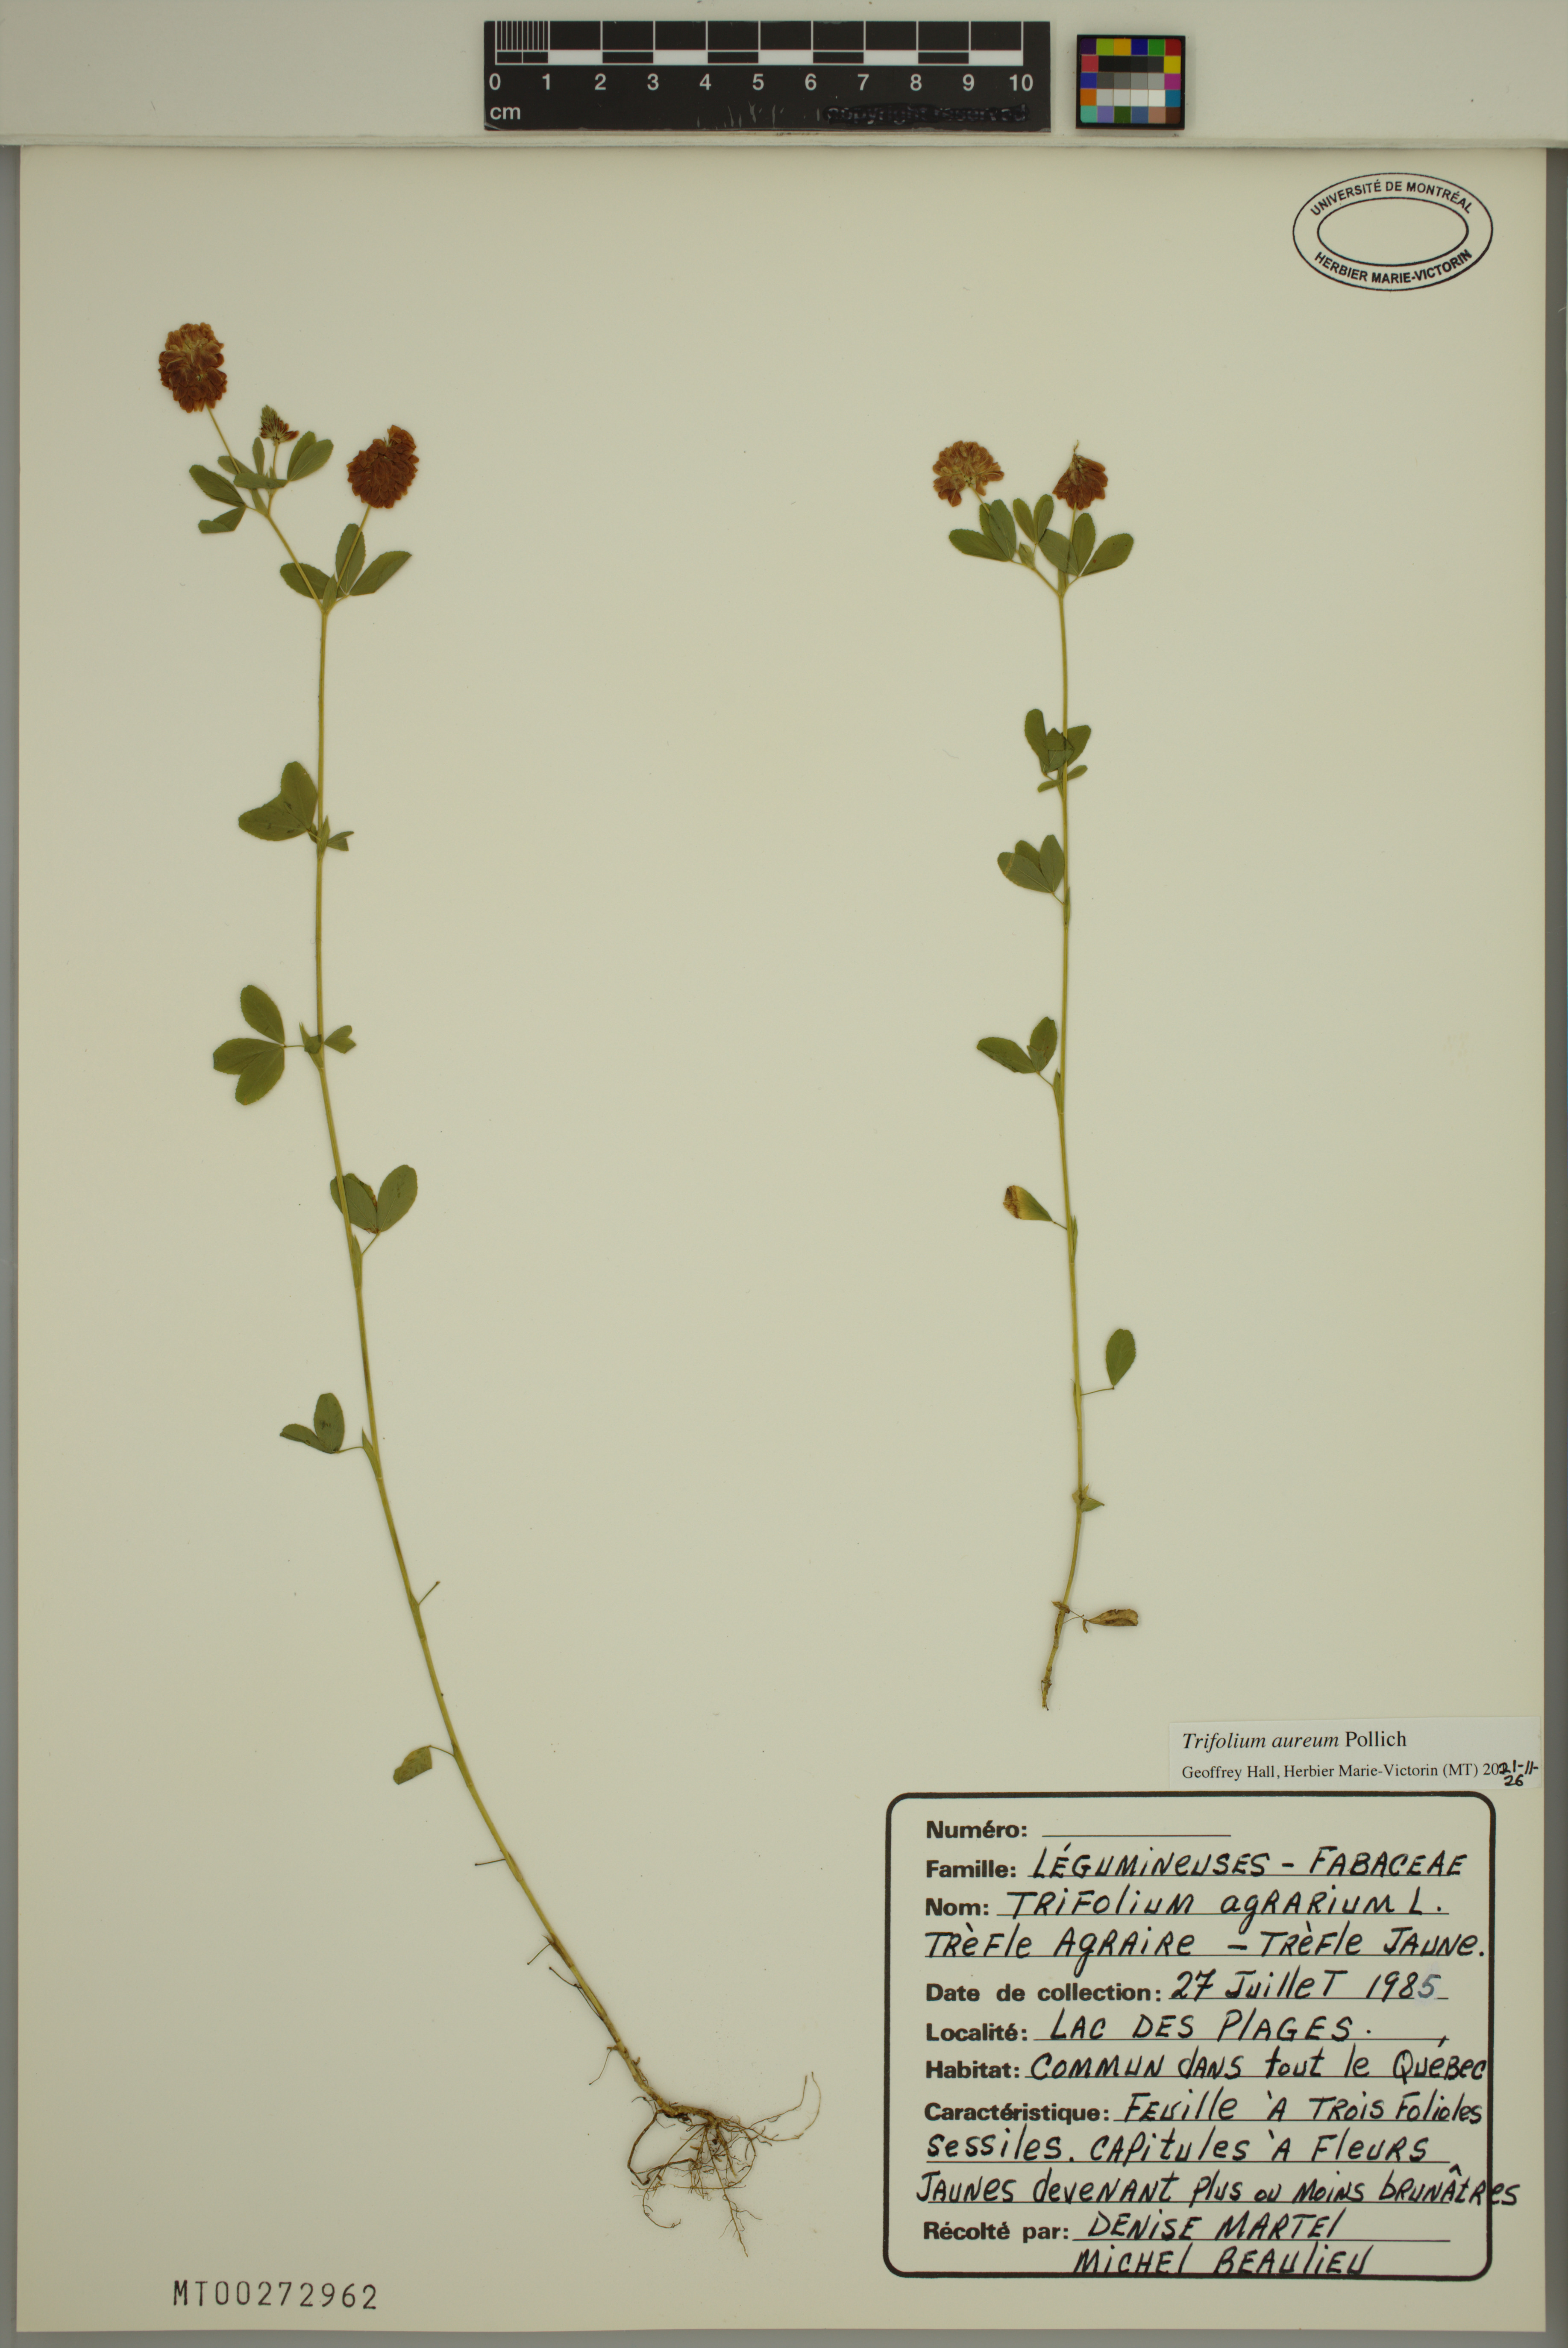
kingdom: Plantae
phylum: Tracheophyta
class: Magnoliopsida
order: Fabales
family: Fabaceae
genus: Trifolium
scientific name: Trifolium aureum
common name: Golden clover
